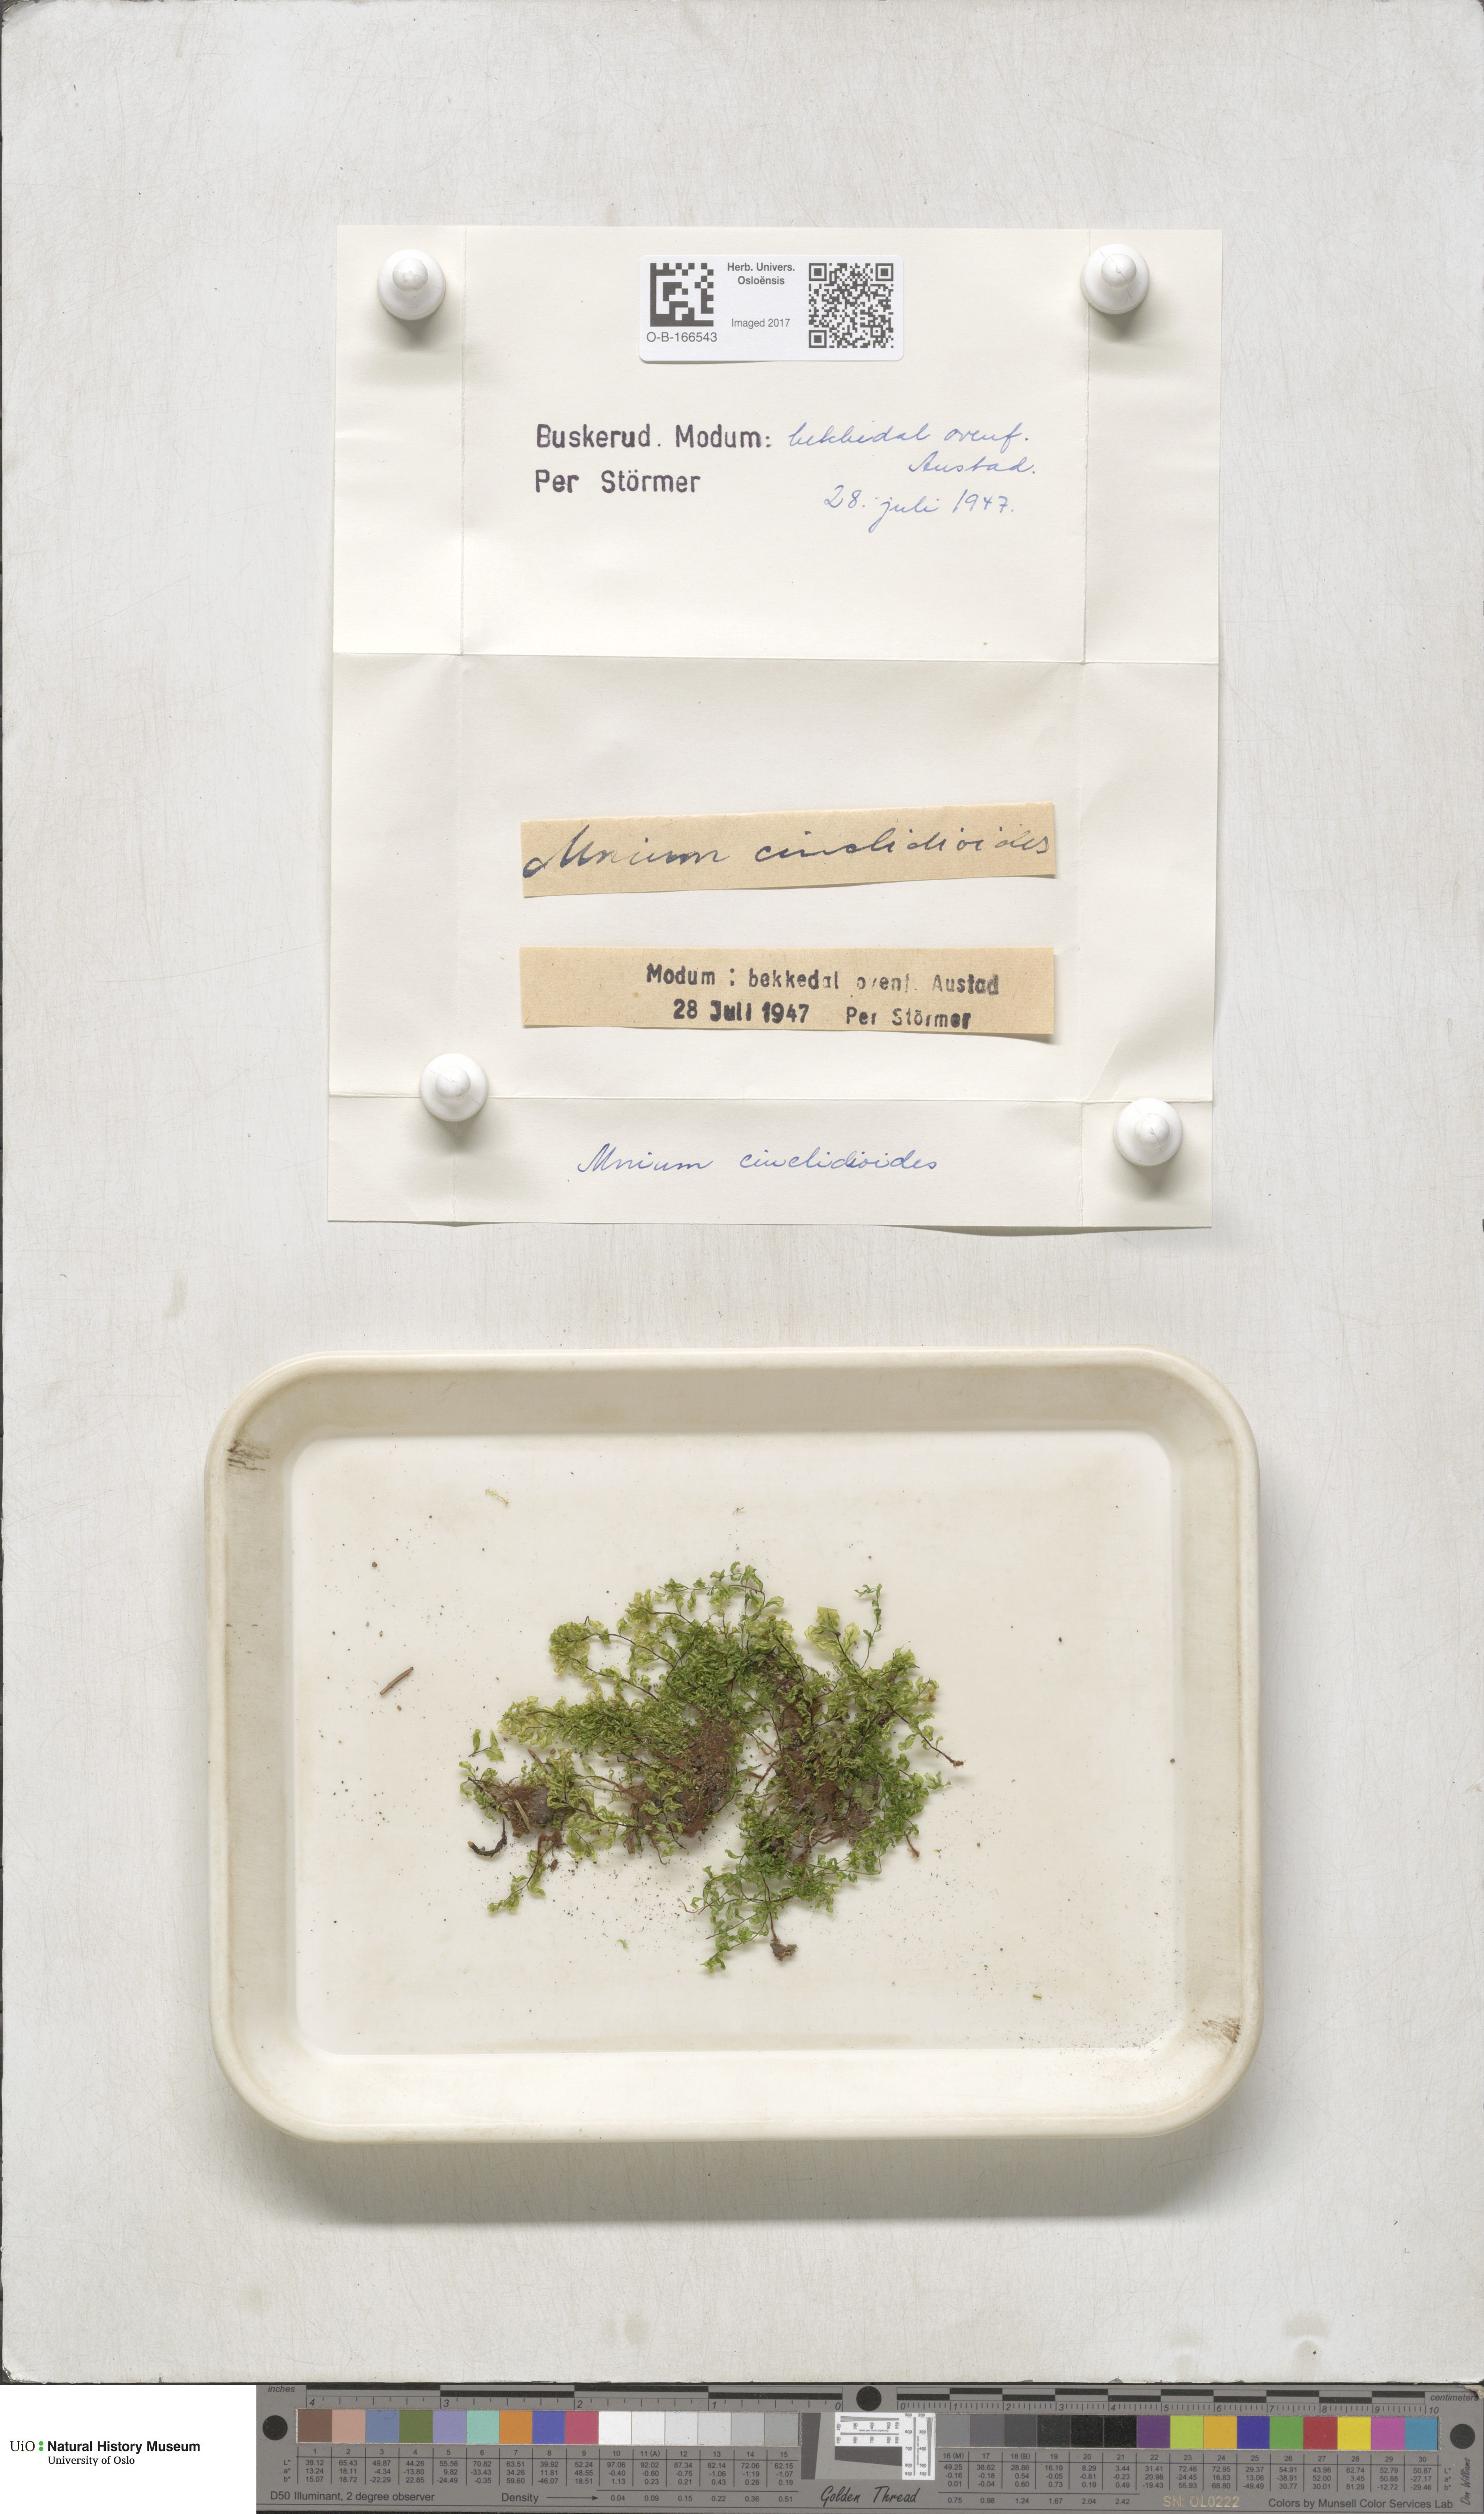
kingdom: Plantae
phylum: Bryophyta
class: Bryopsida
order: Bryales
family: Mniaceae
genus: Pseudobryum
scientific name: Pseudobryum cinclidioides
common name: River thyme moss
